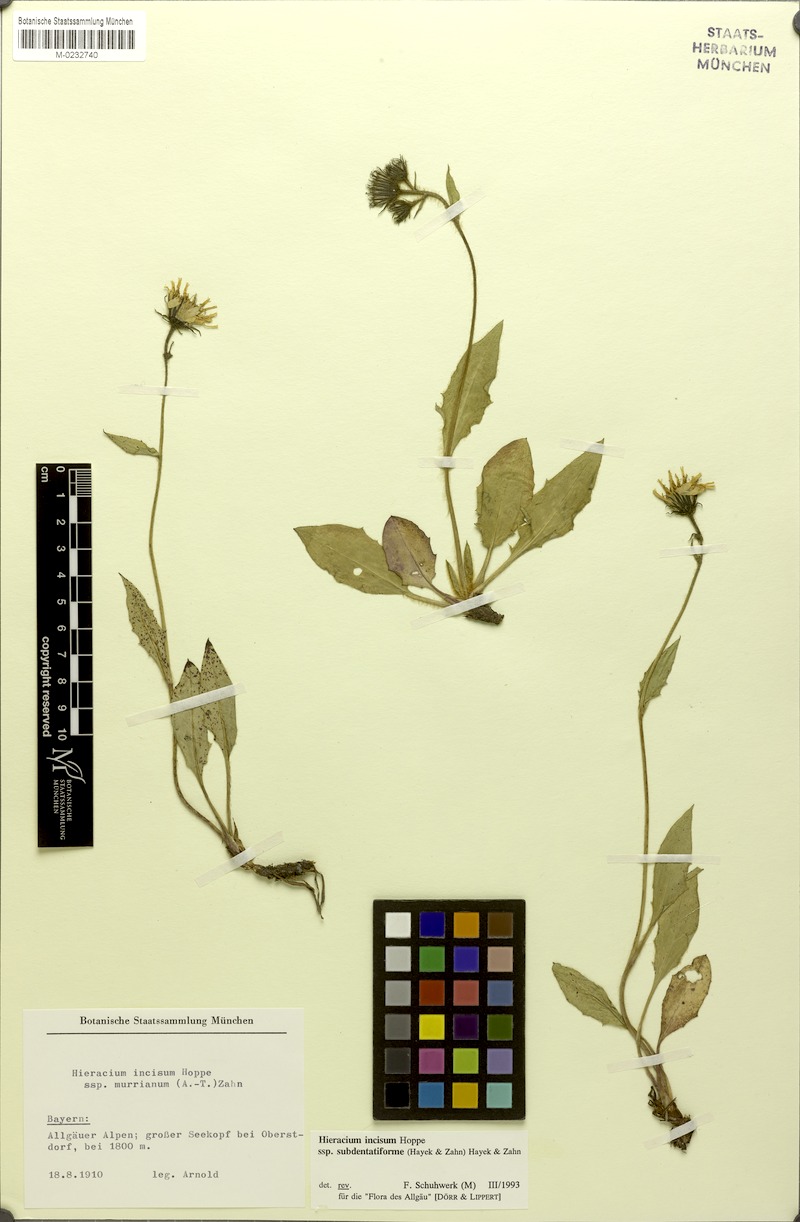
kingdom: Plantae
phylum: Tracheophyta
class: Magnoliopsida
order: Asterales
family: Asteraceae
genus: Hieracium
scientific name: Hieracium incisum
